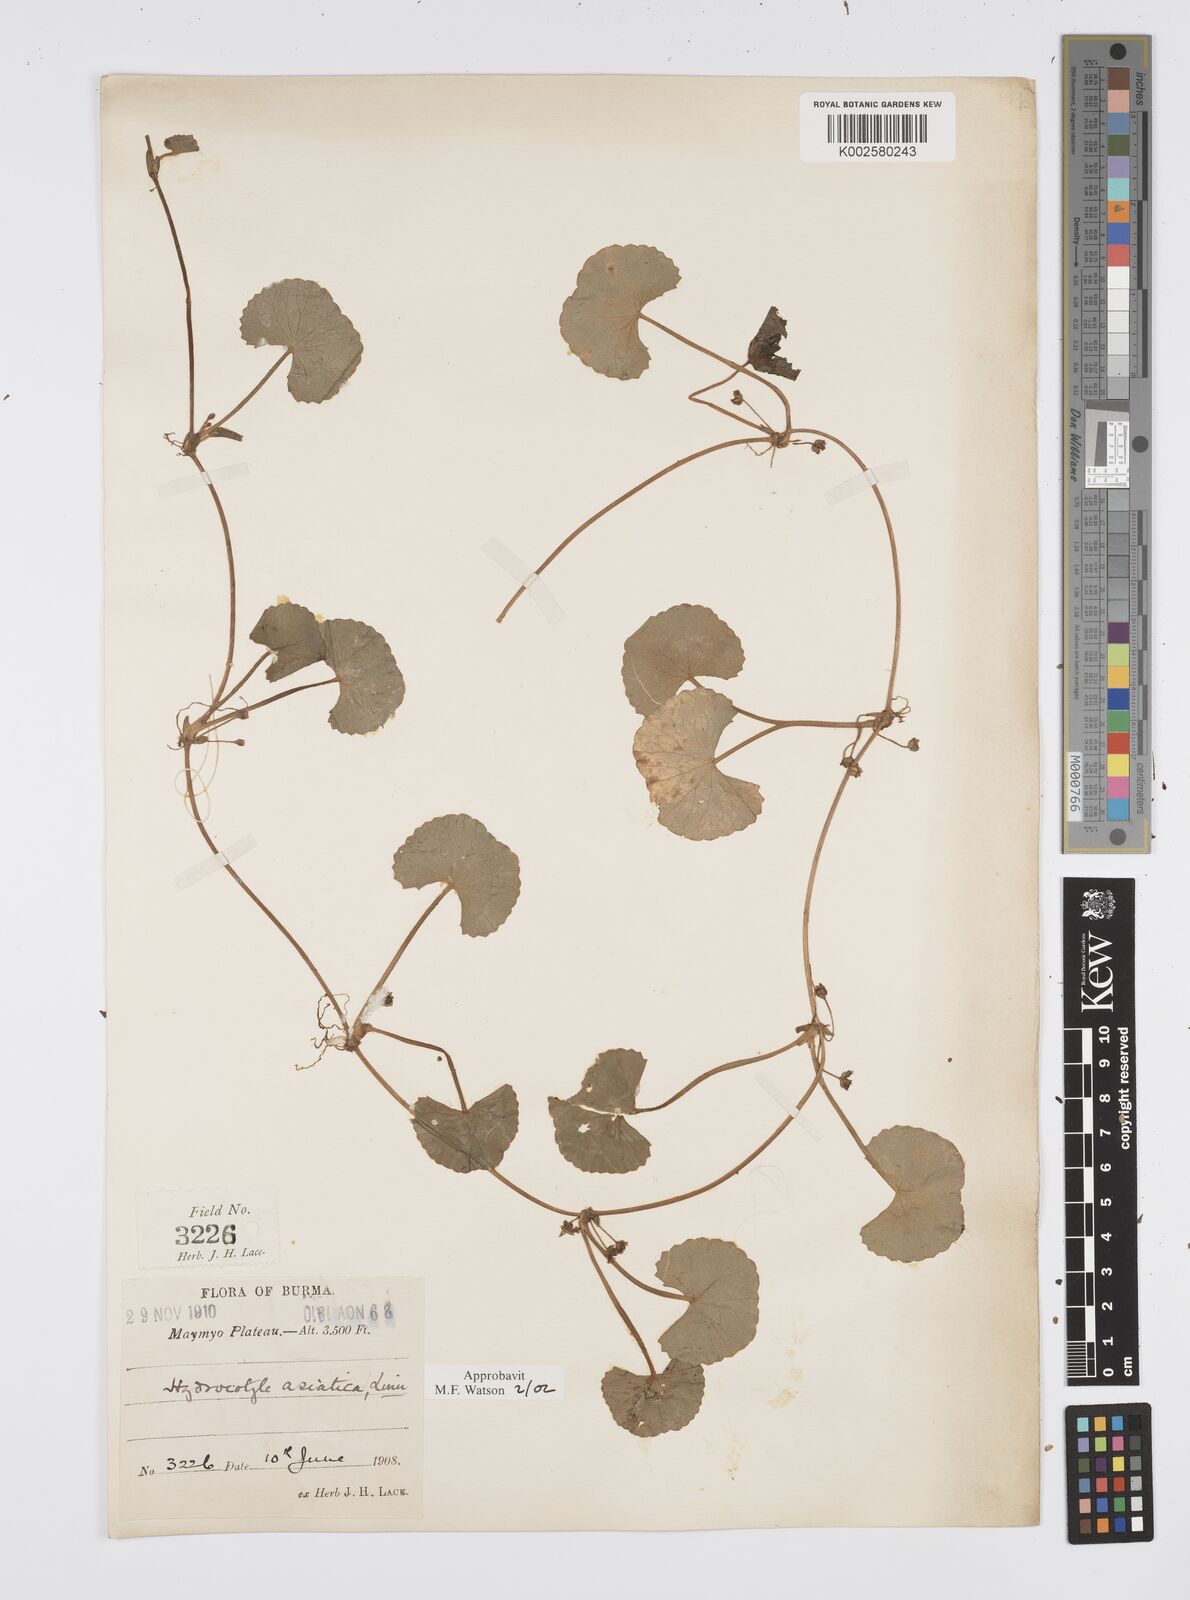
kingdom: Plantae
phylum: Tracheophyta
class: Magnoliopsida
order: Apiales
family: Apiaceae
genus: Centella
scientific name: Centella asiatica
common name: Spadeleaf
